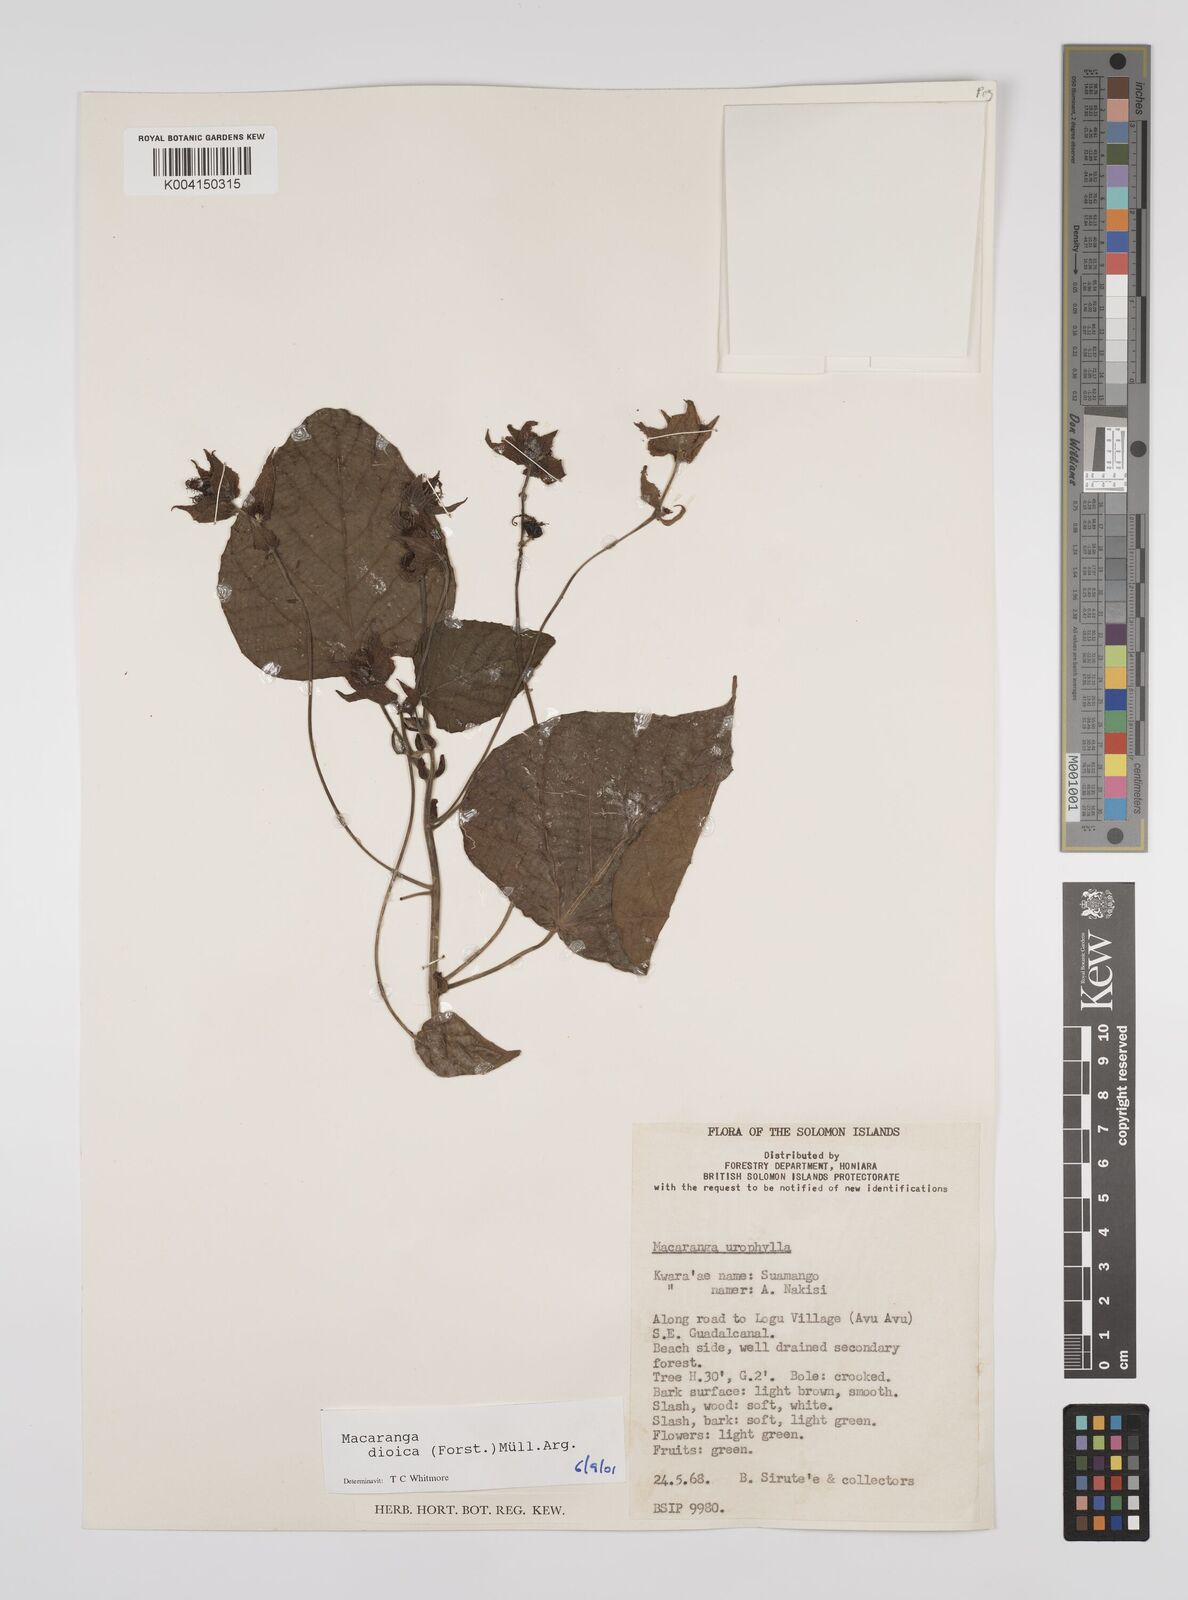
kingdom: Plantae
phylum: Tracheophyta
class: Magnoliopsida
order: Malpighiales
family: Euphorbiaceae
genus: Macaranga
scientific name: Macaranga dioica
